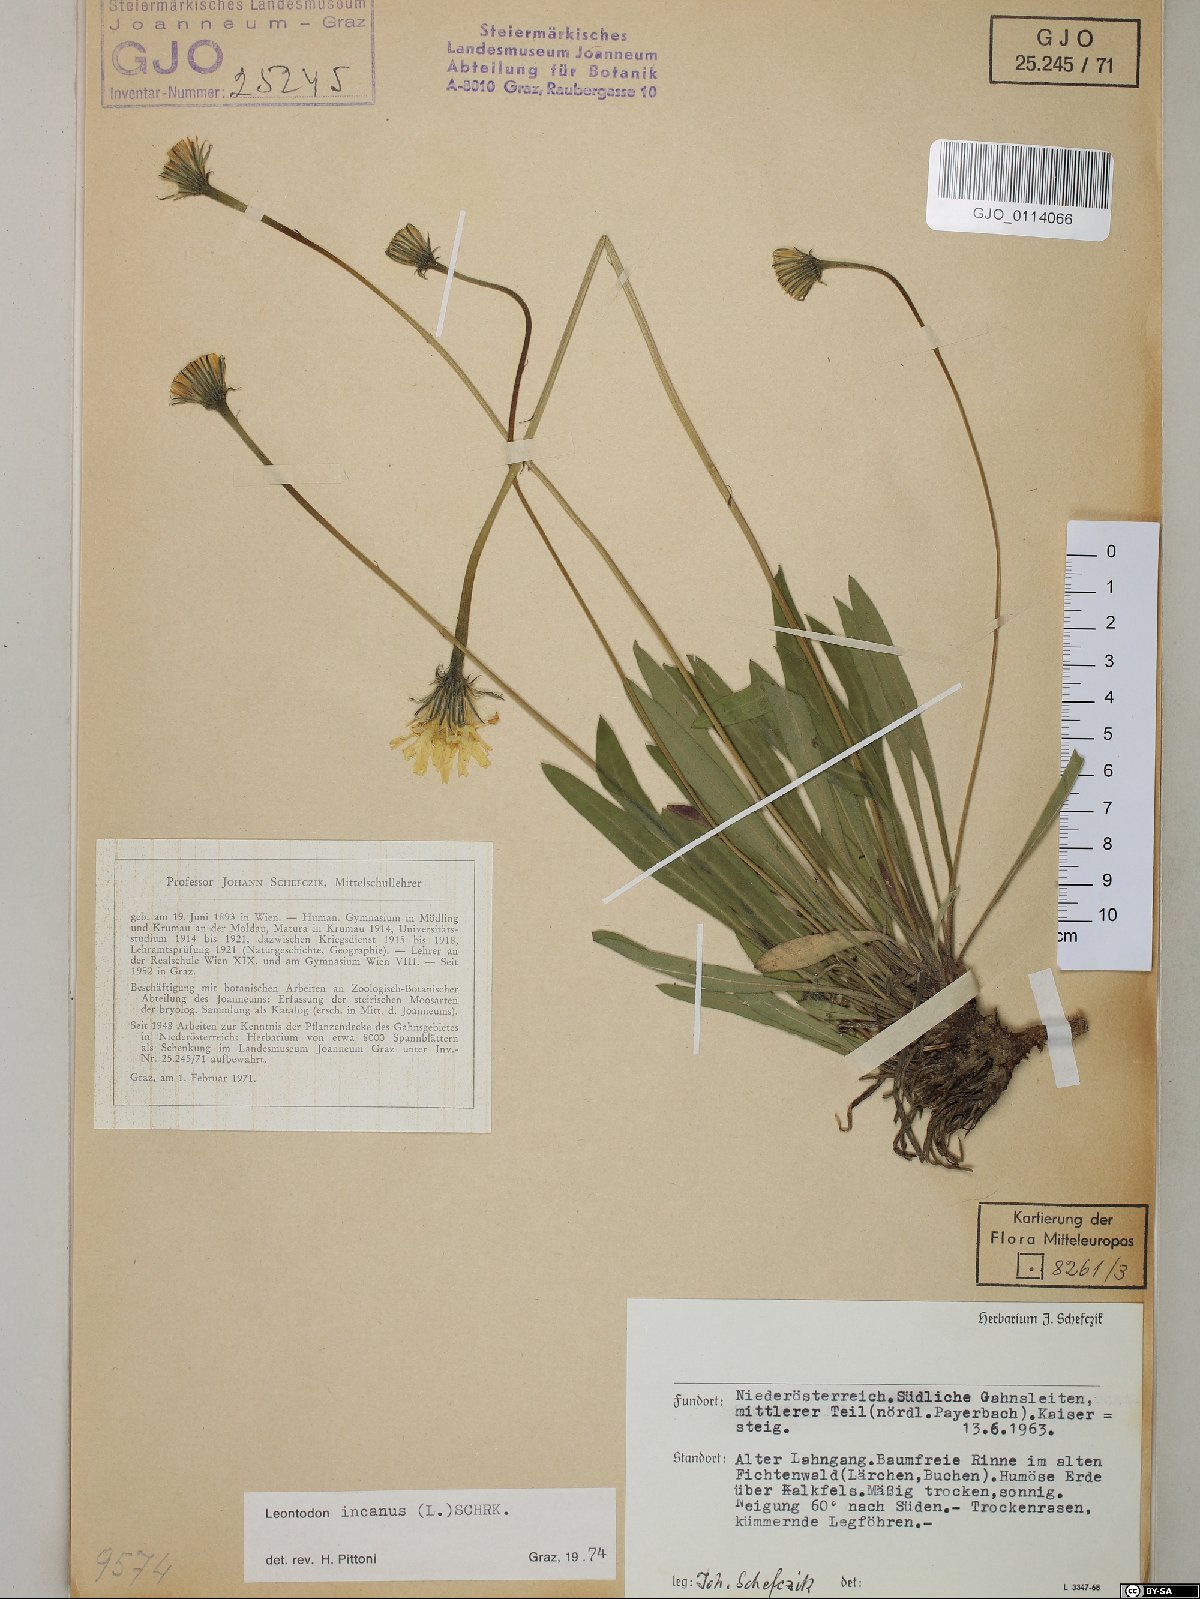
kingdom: Plantae
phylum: Tracheophyta
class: Magnoliopsida
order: Asterales
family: Asteraceae
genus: Leontodon
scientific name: Leontodon incanus
